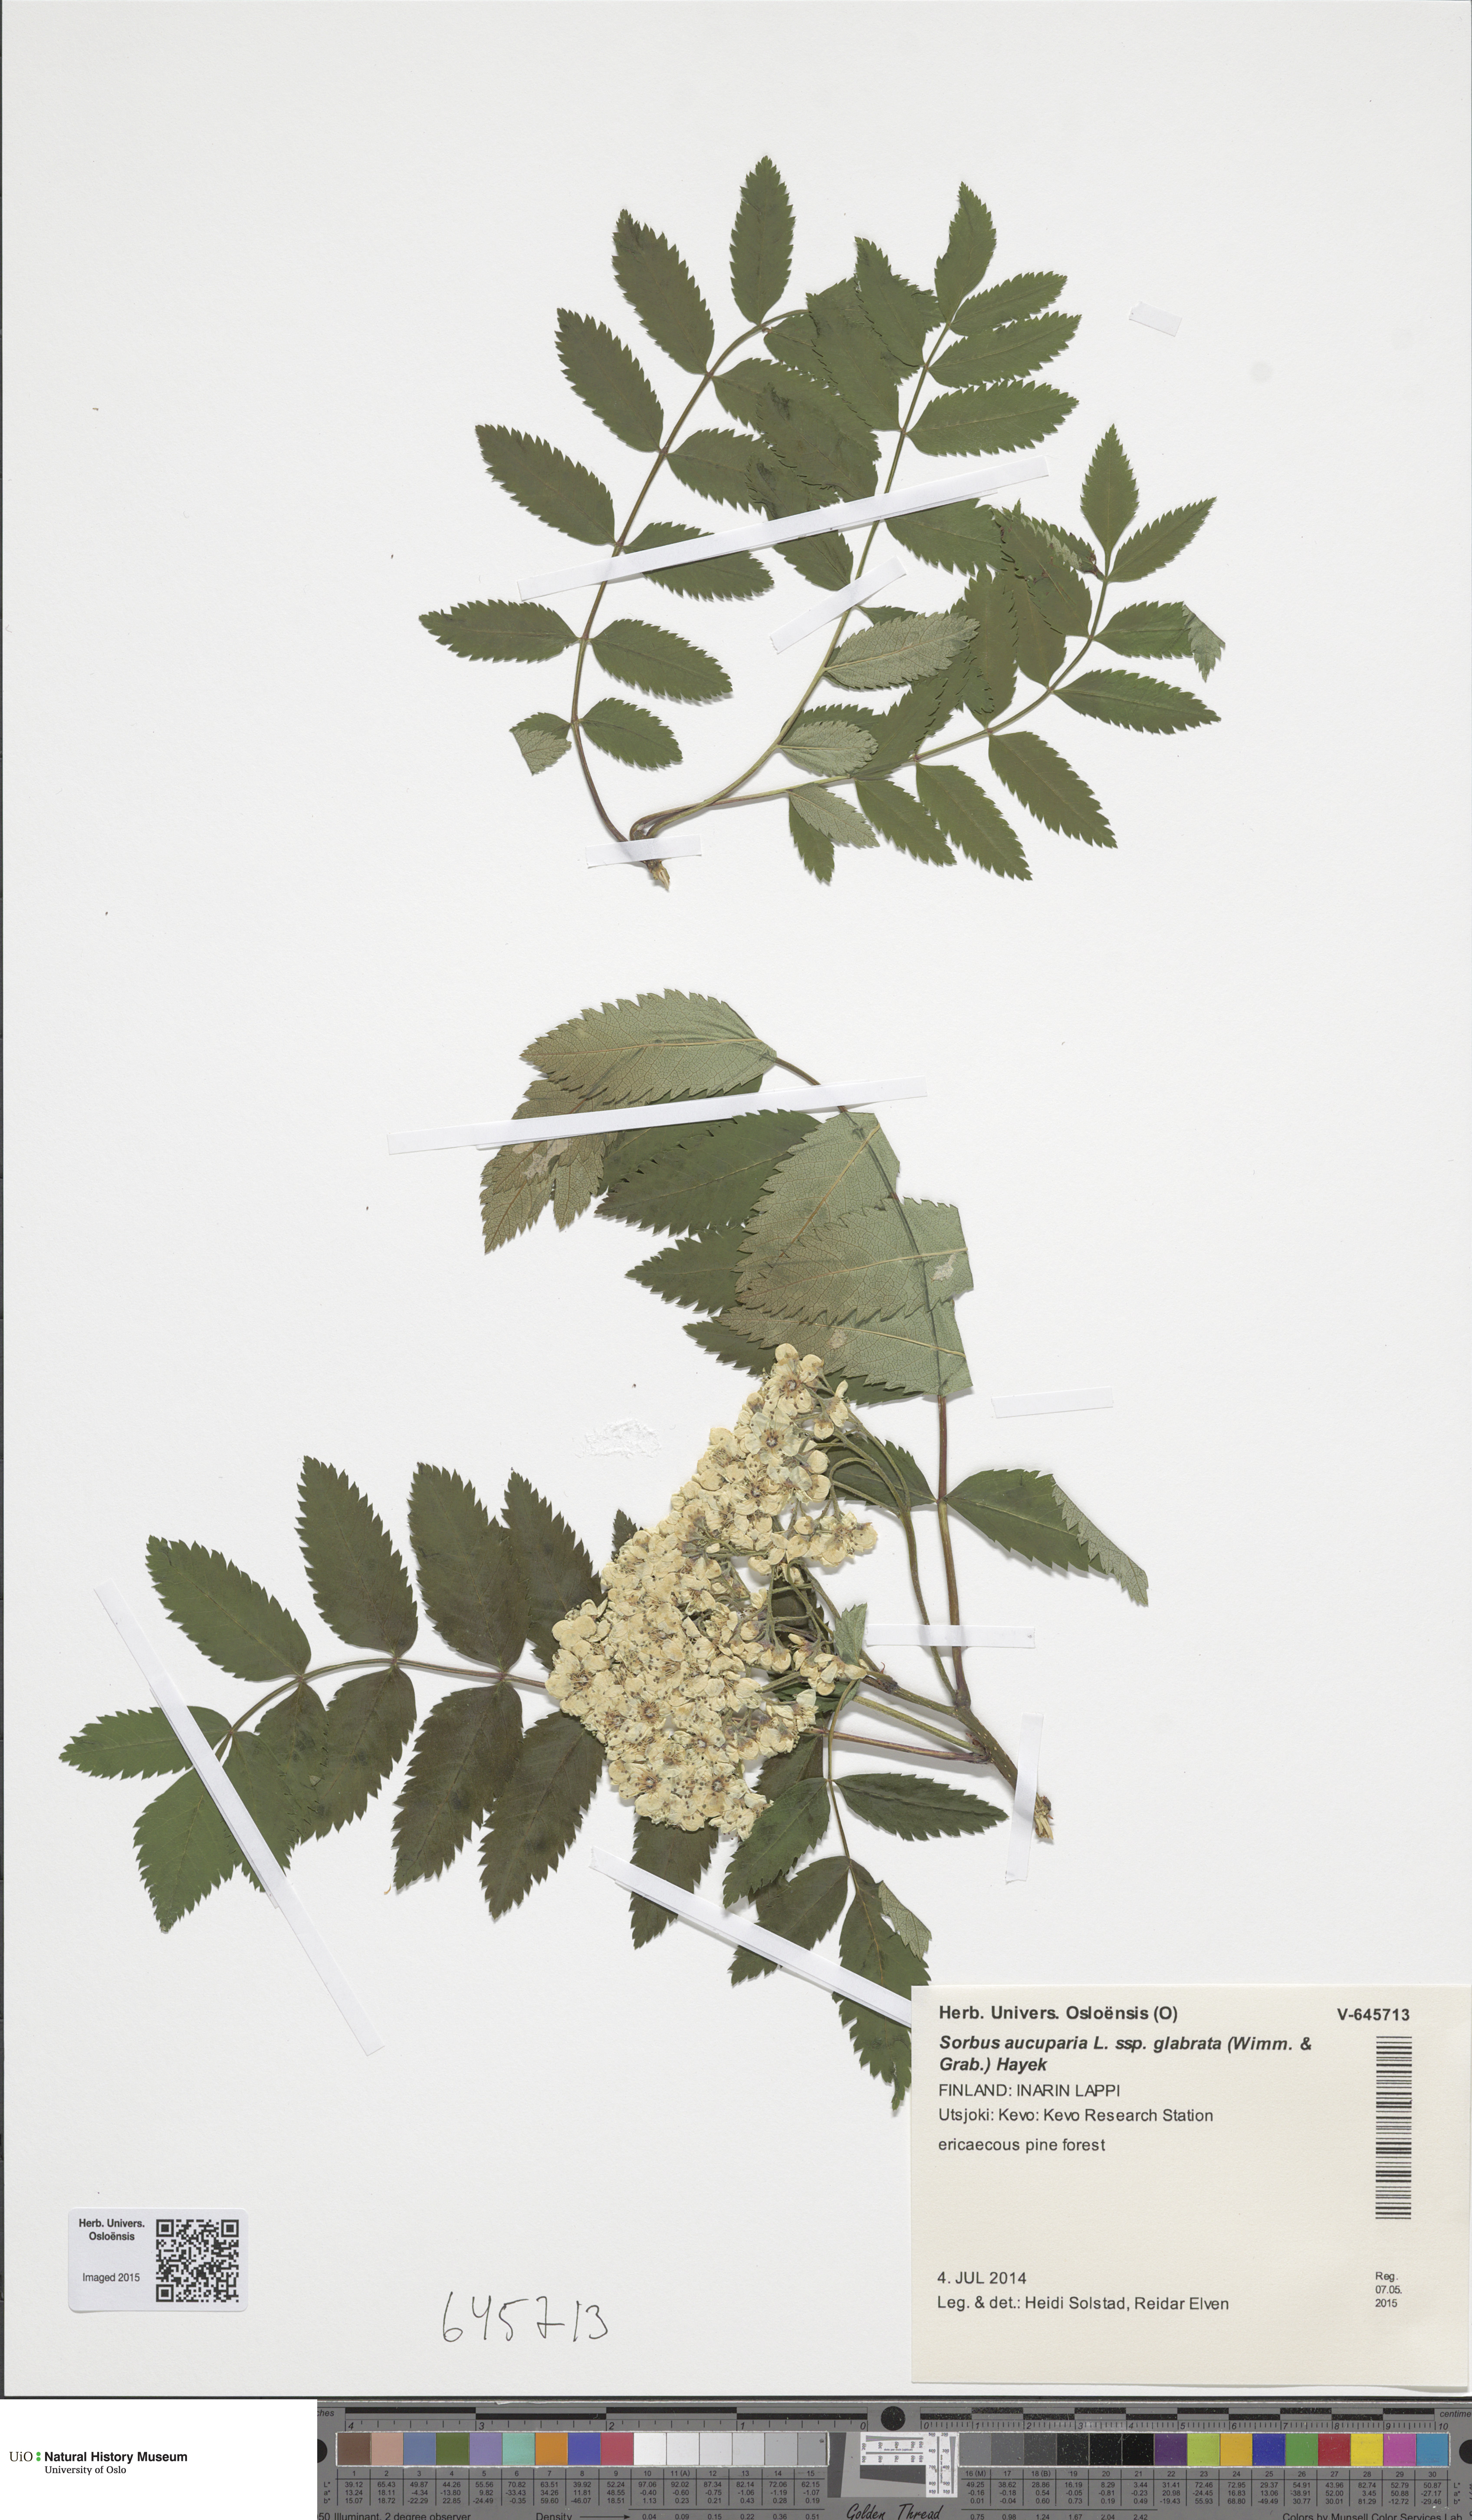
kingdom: Plantae
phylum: Tracheophyta
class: Magnoliopsida
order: Rosales
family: Rosaceae
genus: Sorbus
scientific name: Sorbus aucuparia
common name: Rowan
